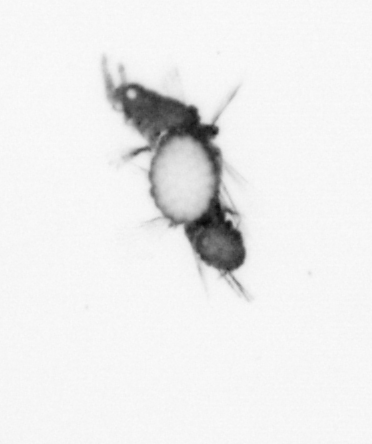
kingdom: Animalia
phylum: Annelida
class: Polychaeta
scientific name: Polychaeta
